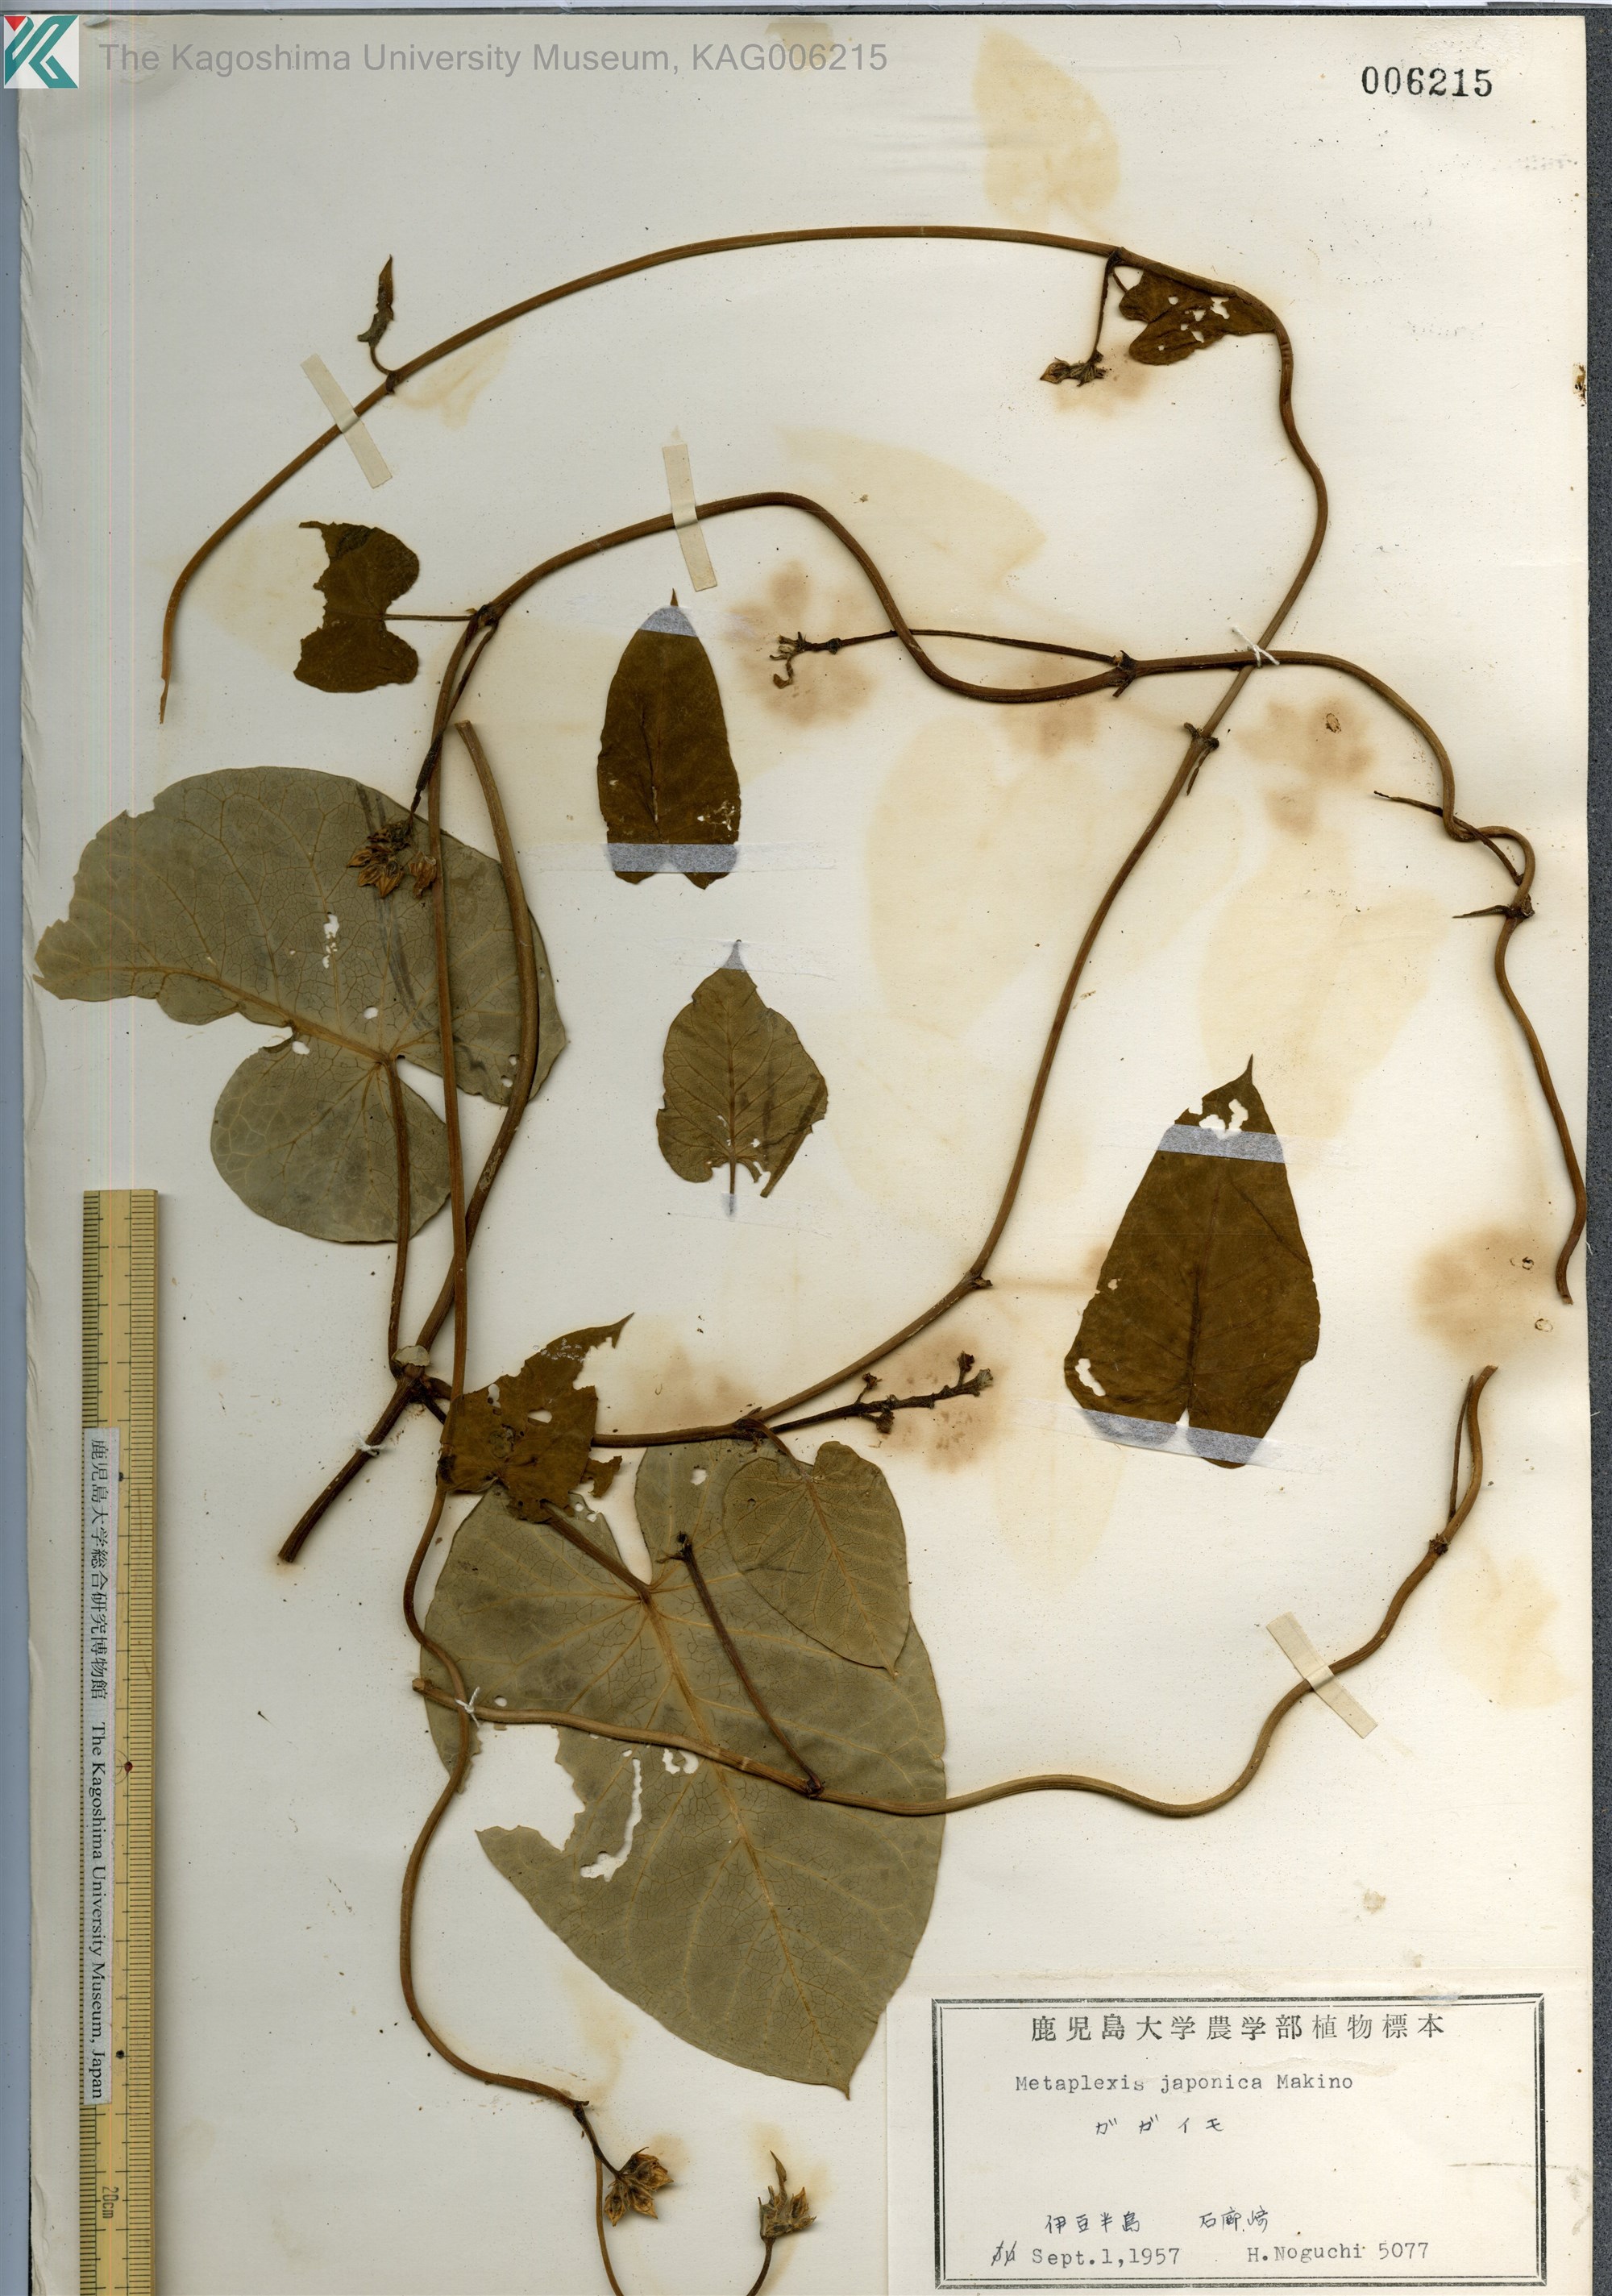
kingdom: Plantae
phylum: Tracheophyta
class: Magnoliopsida
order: Gentianales
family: Apocynaceae
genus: Cynanchum
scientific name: Cynanchum rostellatum
